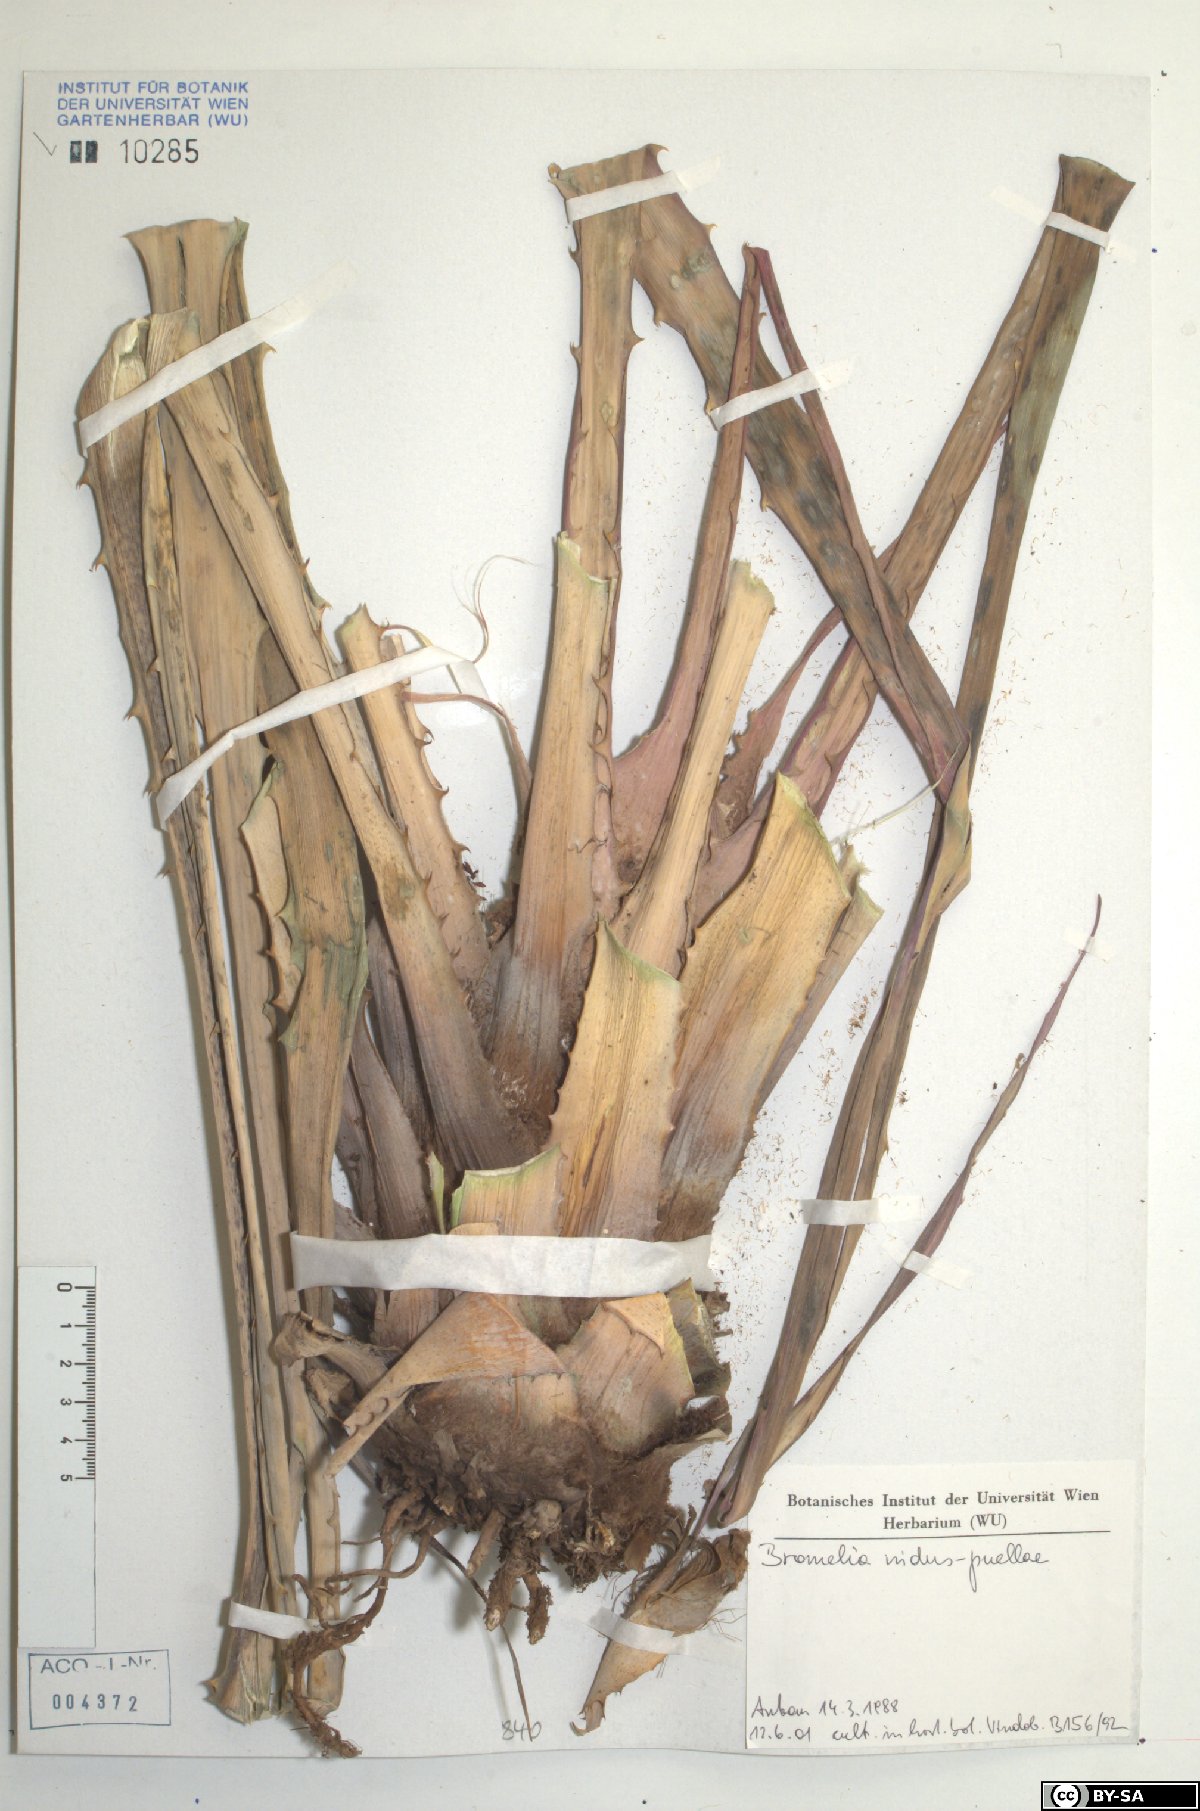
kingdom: Plantae
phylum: Tracheophyta
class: Liliopsida
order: Poales
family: Bromeliaceae
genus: Bromelia
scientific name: Bromelia nidus-puellae
